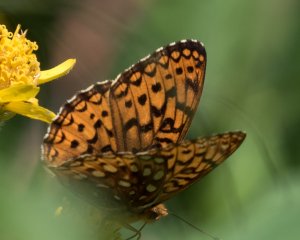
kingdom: Animalia
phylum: Arthropoda
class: Insecta
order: Lepidoptera
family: Nymphalidae
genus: Speyeria
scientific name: Speyeria hydaspe
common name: Hydaspe Fritillary
